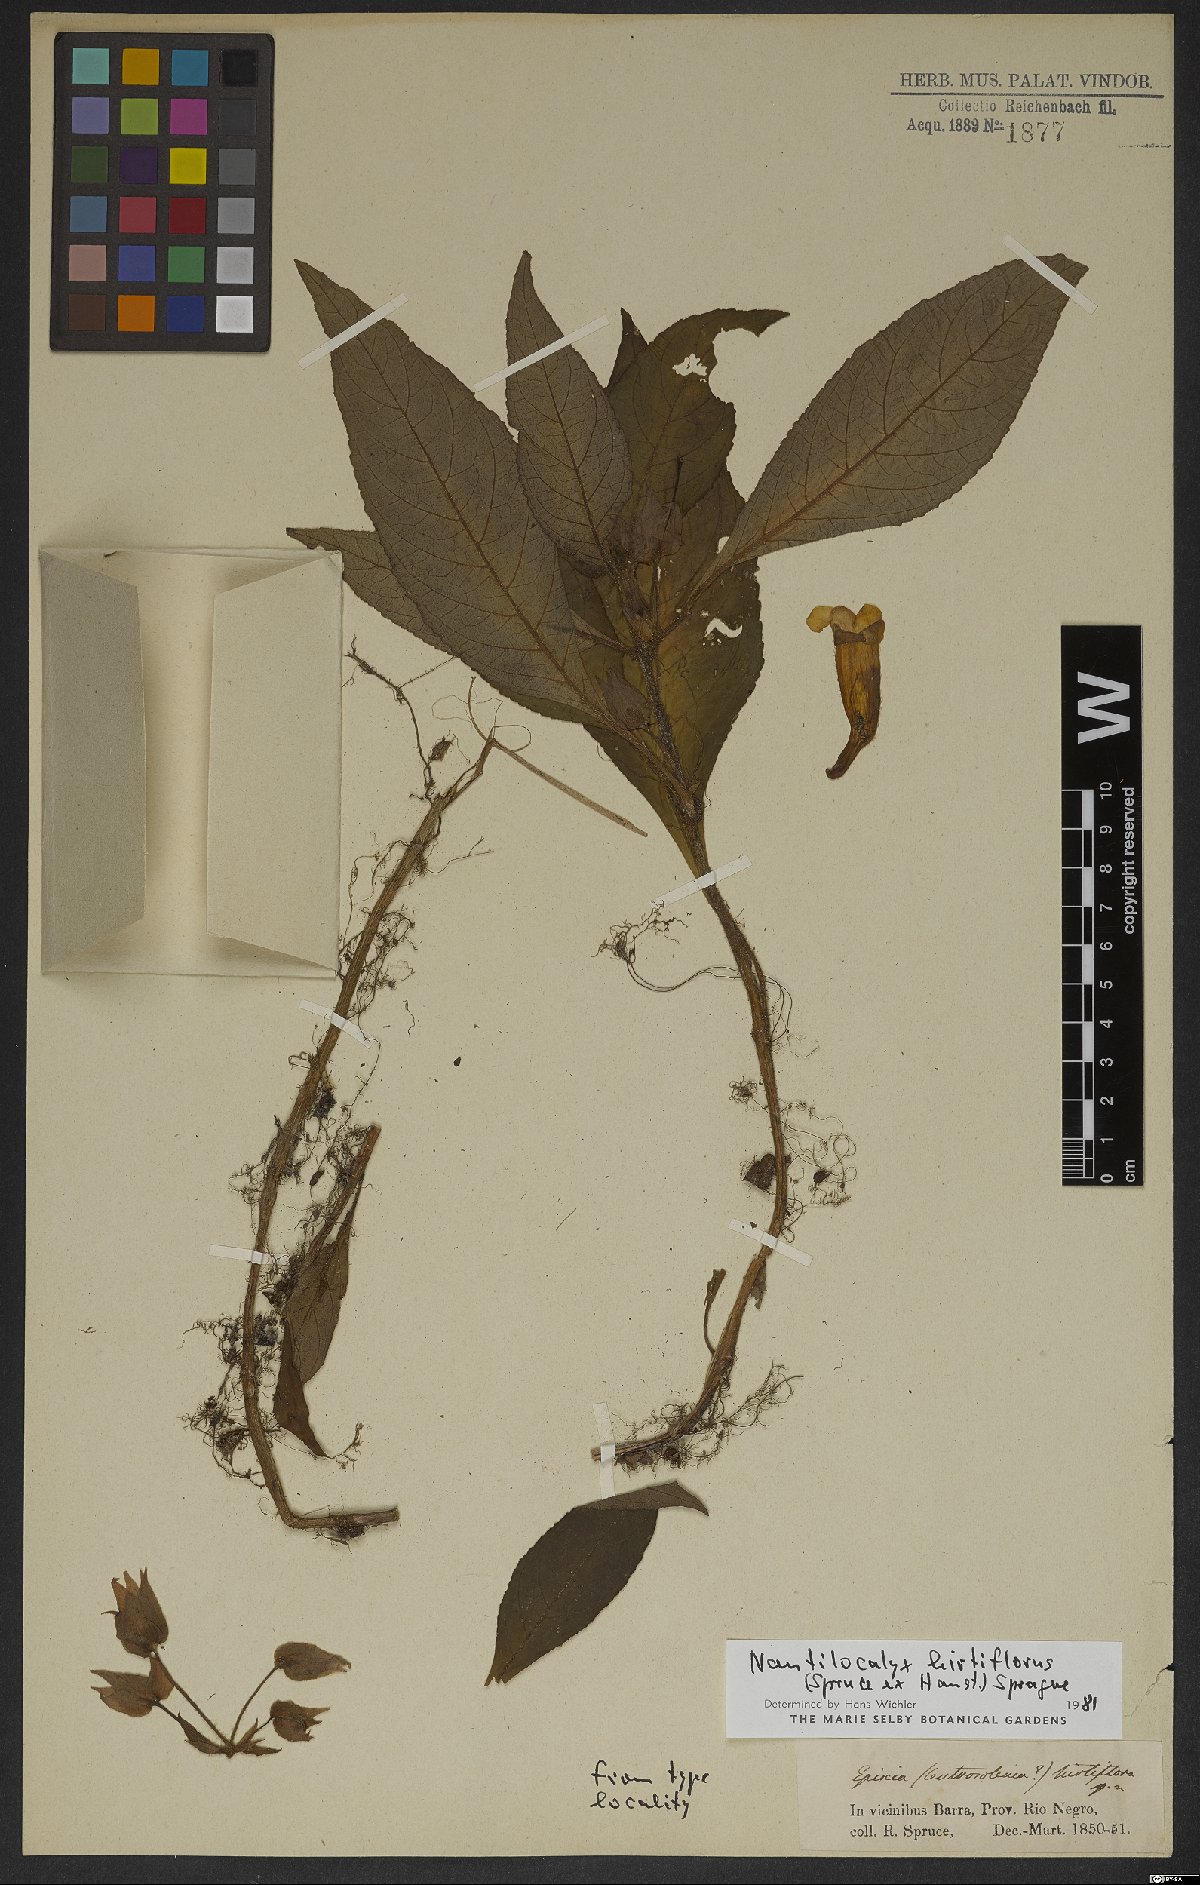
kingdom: Plantae
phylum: Tracheophyta
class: Magnoliopsida
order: Lamiales
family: Gesneriaceae
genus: Nautilocalyx
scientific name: Nautilocalyx hirtiflorus
